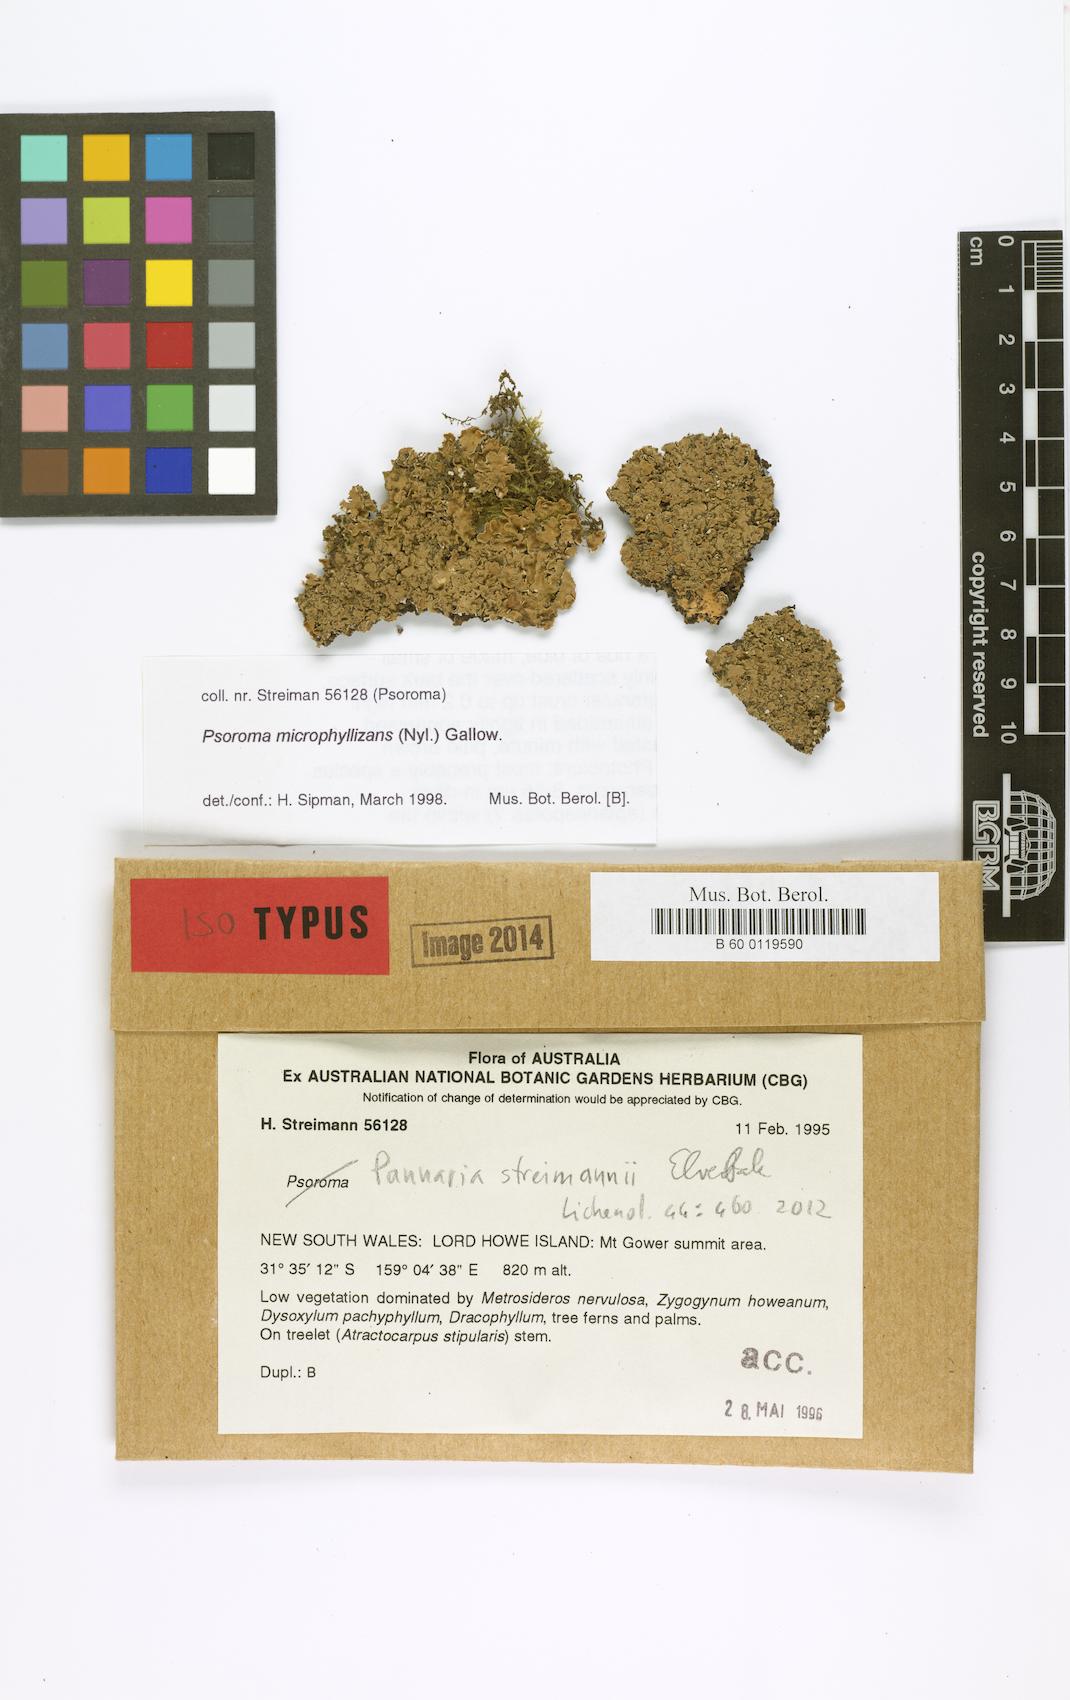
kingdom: Fungi
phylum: Ascomycota
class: Lecanoromycetes
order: Peltigerales
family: Pannariaceae
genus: Pannaria
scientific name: Pannaria streimannii
